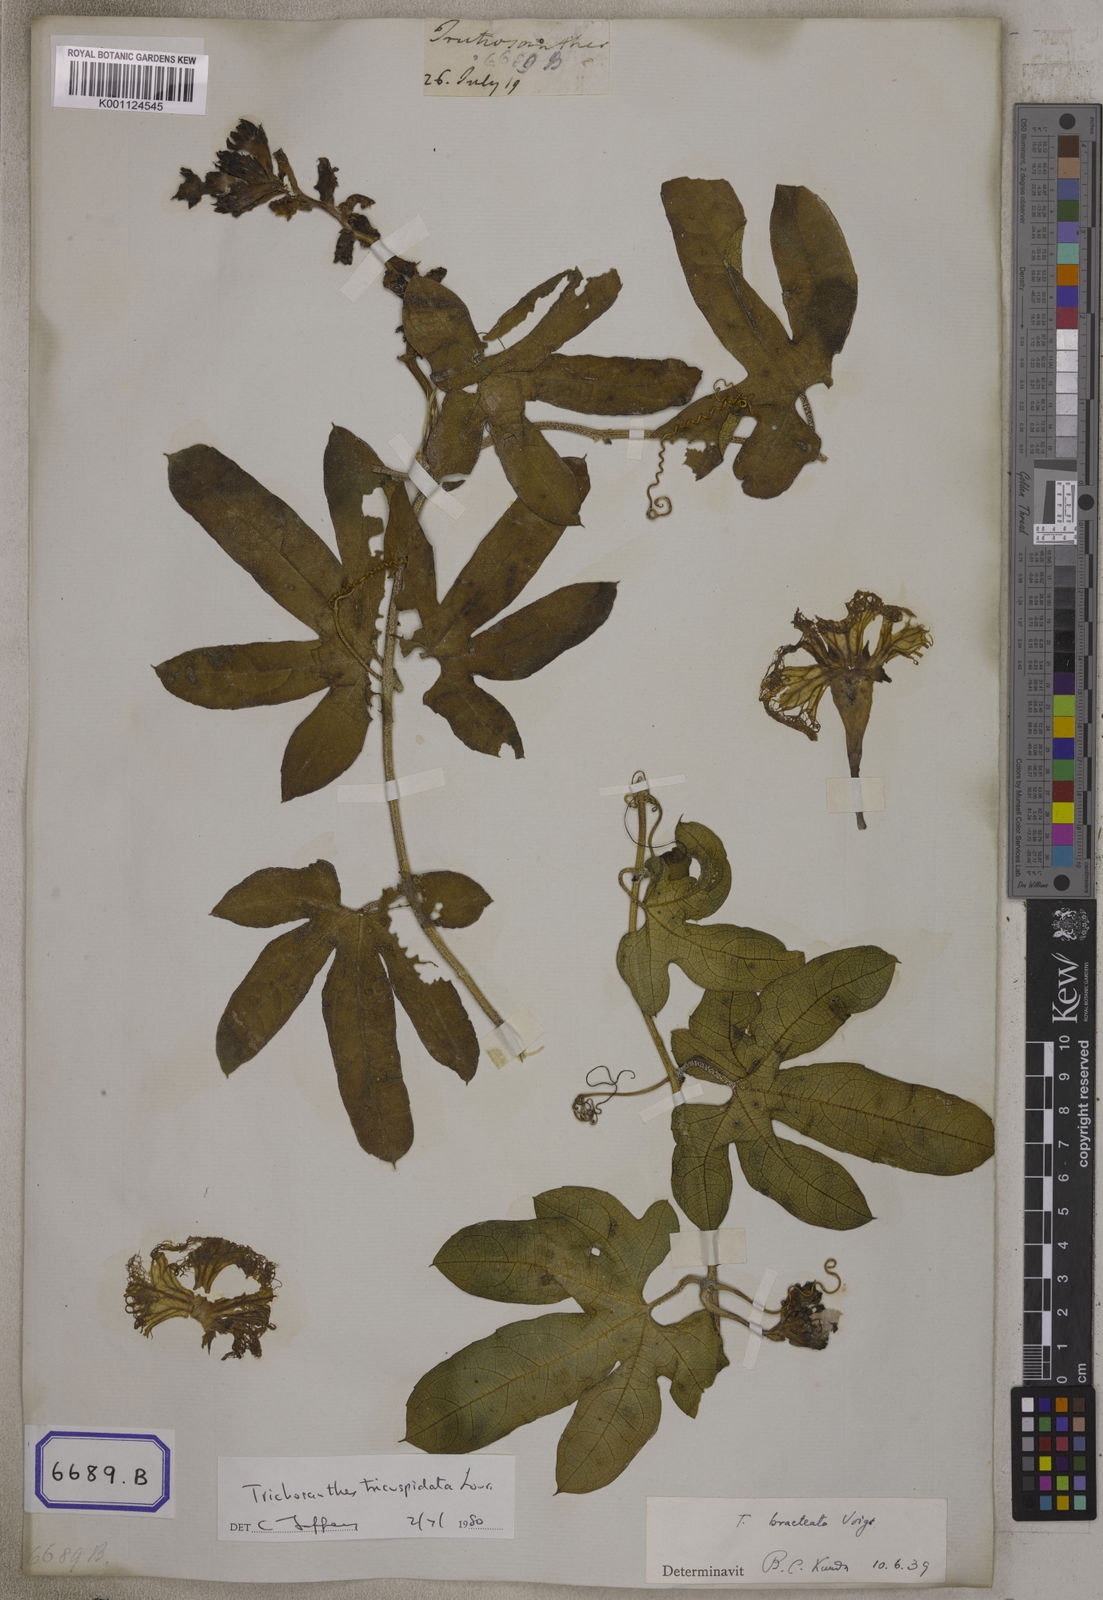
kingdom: Plantae
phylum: Tracheophyta
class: Magnoliopsida
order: Cucurbitales
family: Cucurbitaceae
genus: Trichosanthes
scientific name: Trichosanthes tricuspidata
